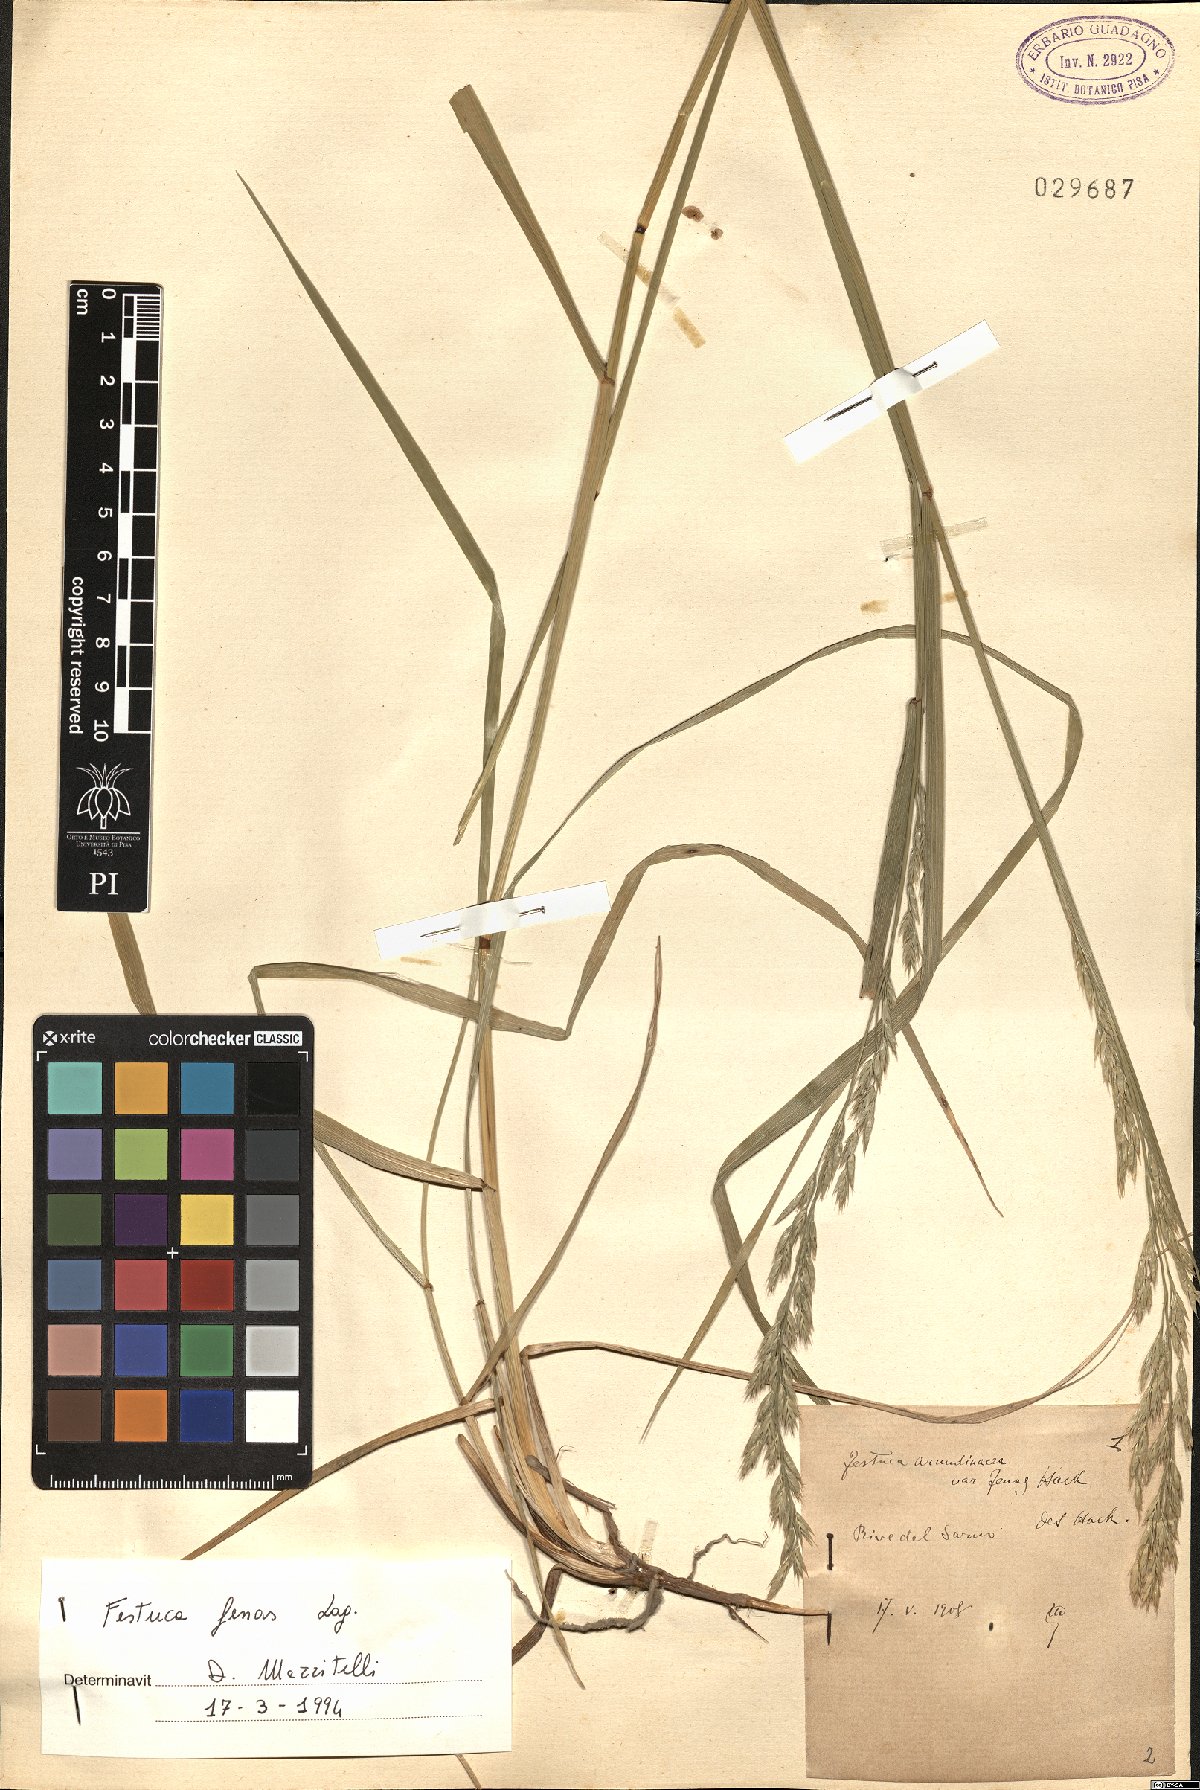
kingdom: Plantae
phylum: Tracheophyta
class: Liliopsida
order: Poales
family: Poaceae
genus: Lolium
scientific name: Lolium interruptum
